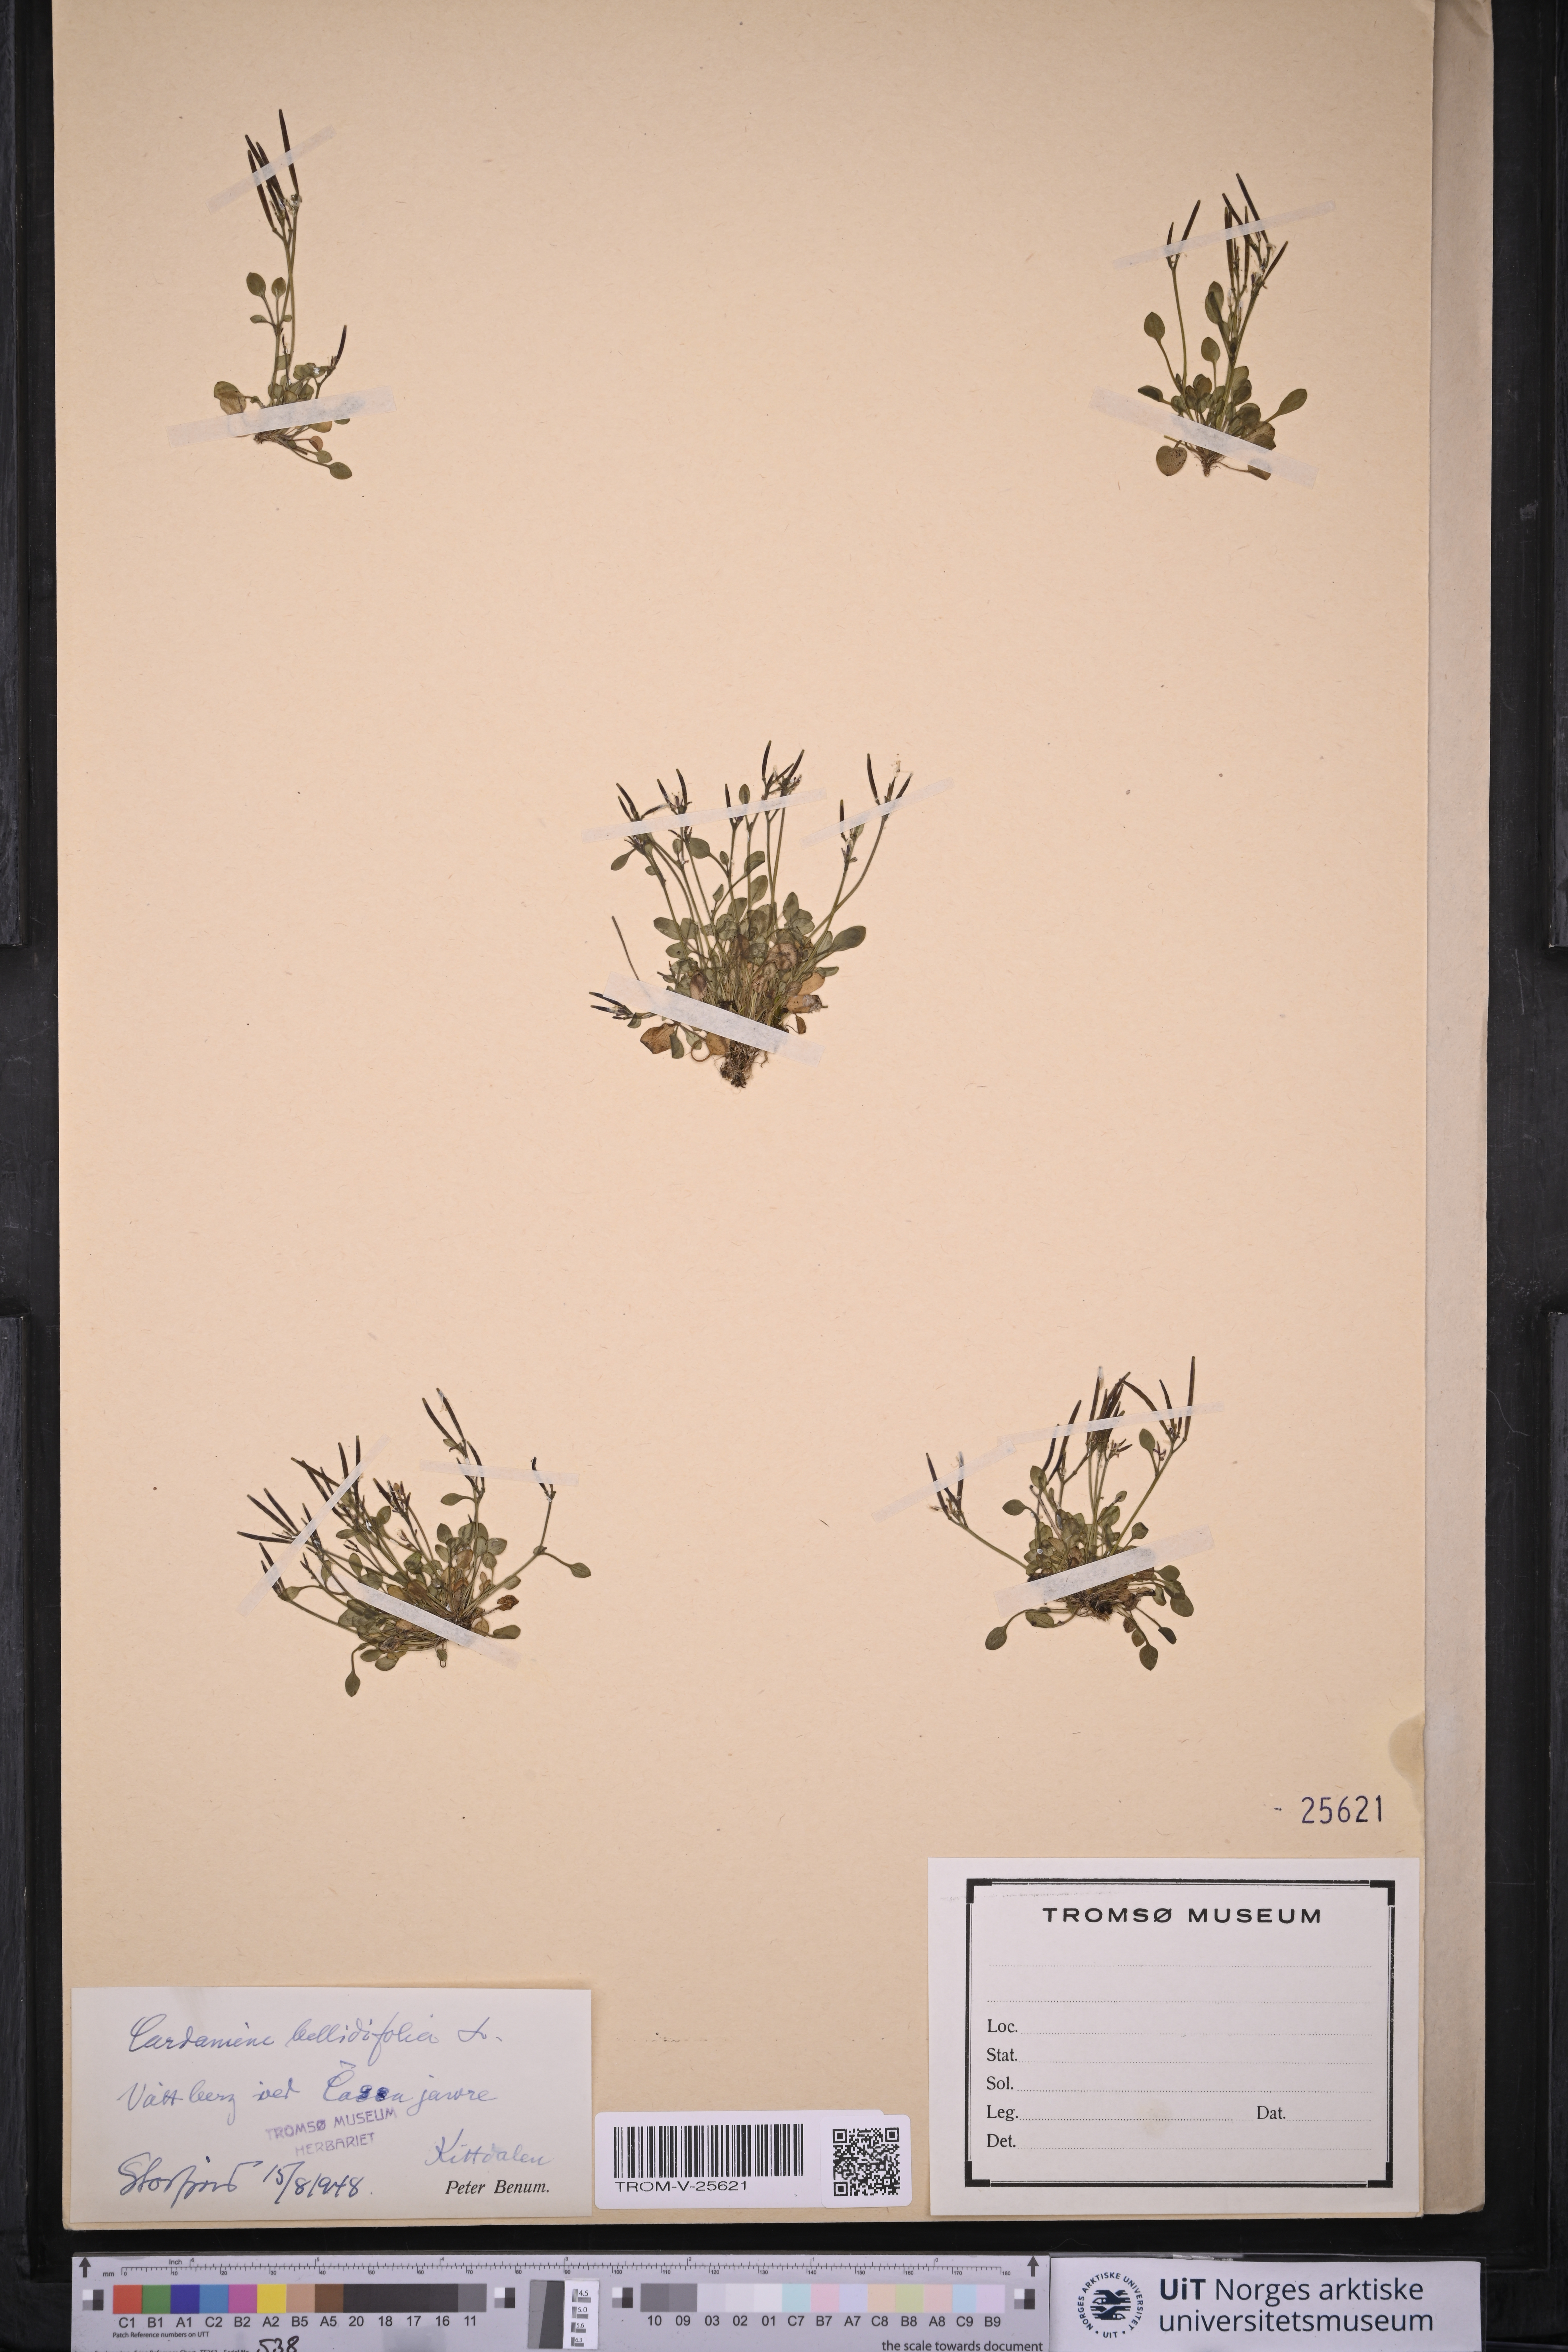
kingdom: Plantae
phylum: Tracheophyta
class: Magnoliopsida
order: Brassicales
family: Brassicaceae
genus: Cardamine
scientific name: Cardamine bellidifolia
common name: Alpine bittercress
